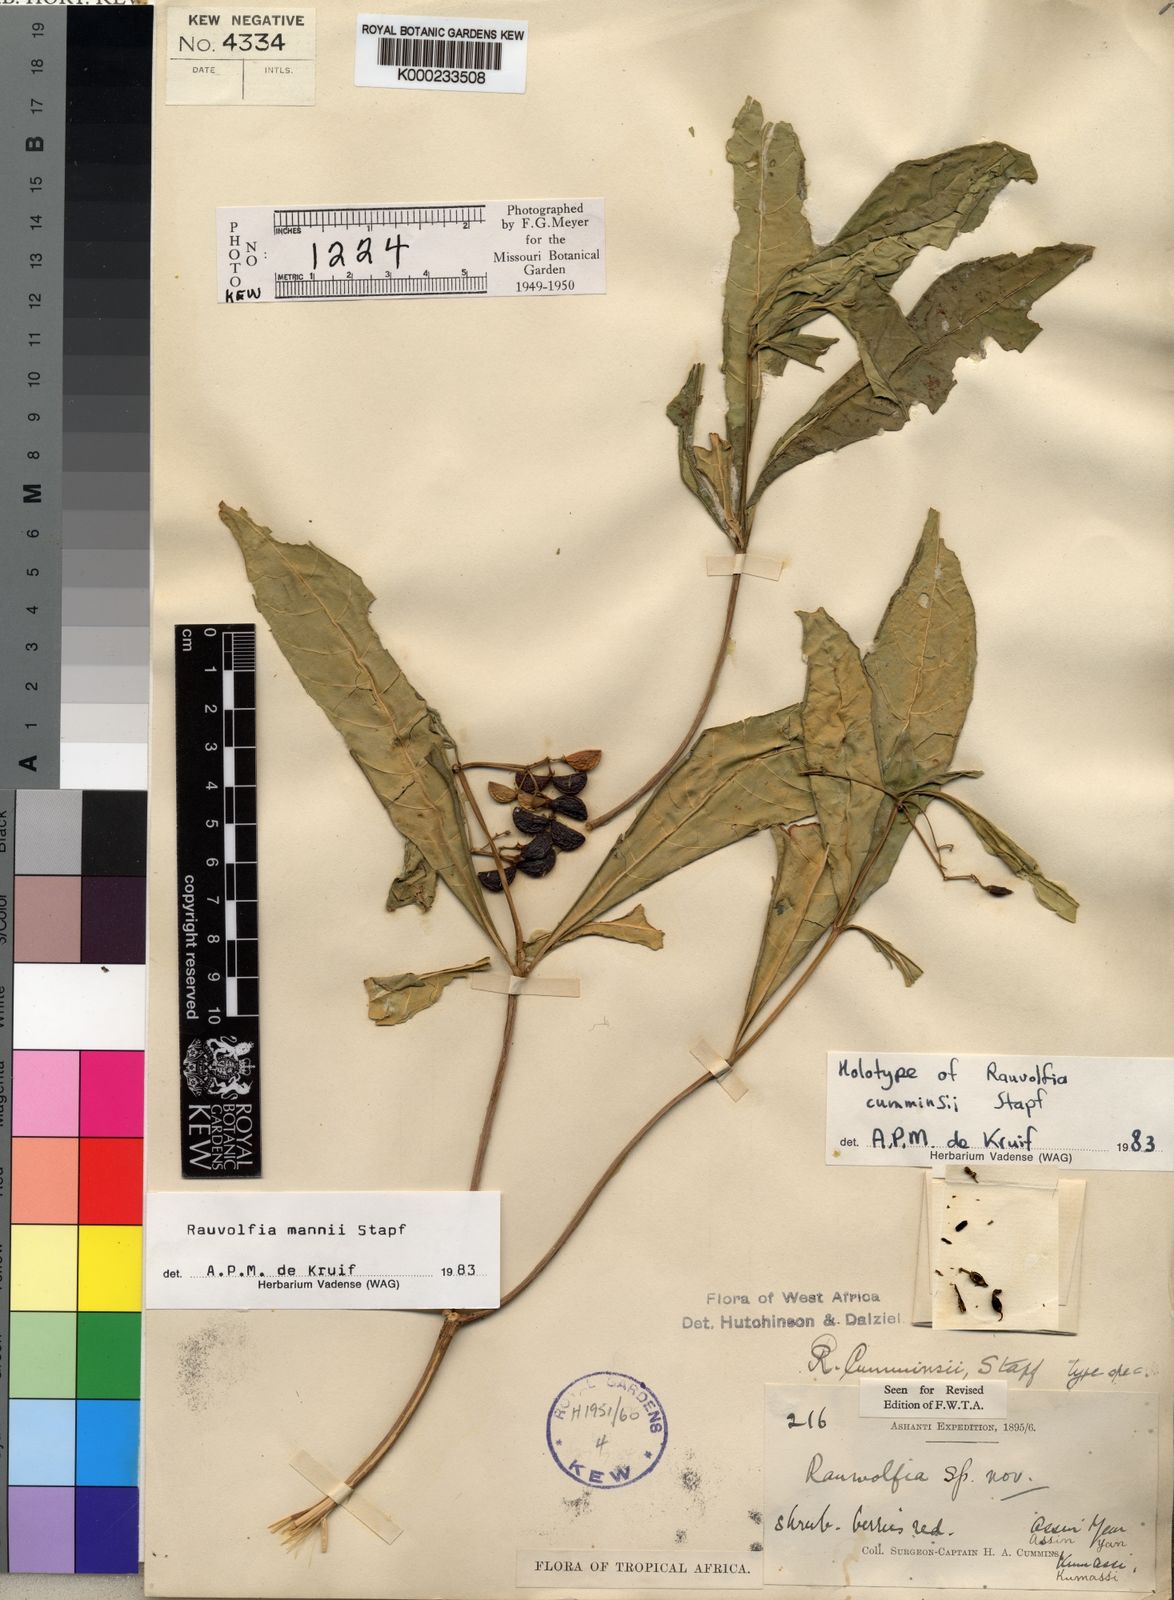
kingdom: Plantae
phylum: Tracheophyta
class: Magnoliopsida
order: Gentianales
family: Apocynaceae
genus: Rauvolfia
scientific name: Rauvolfia mannii
